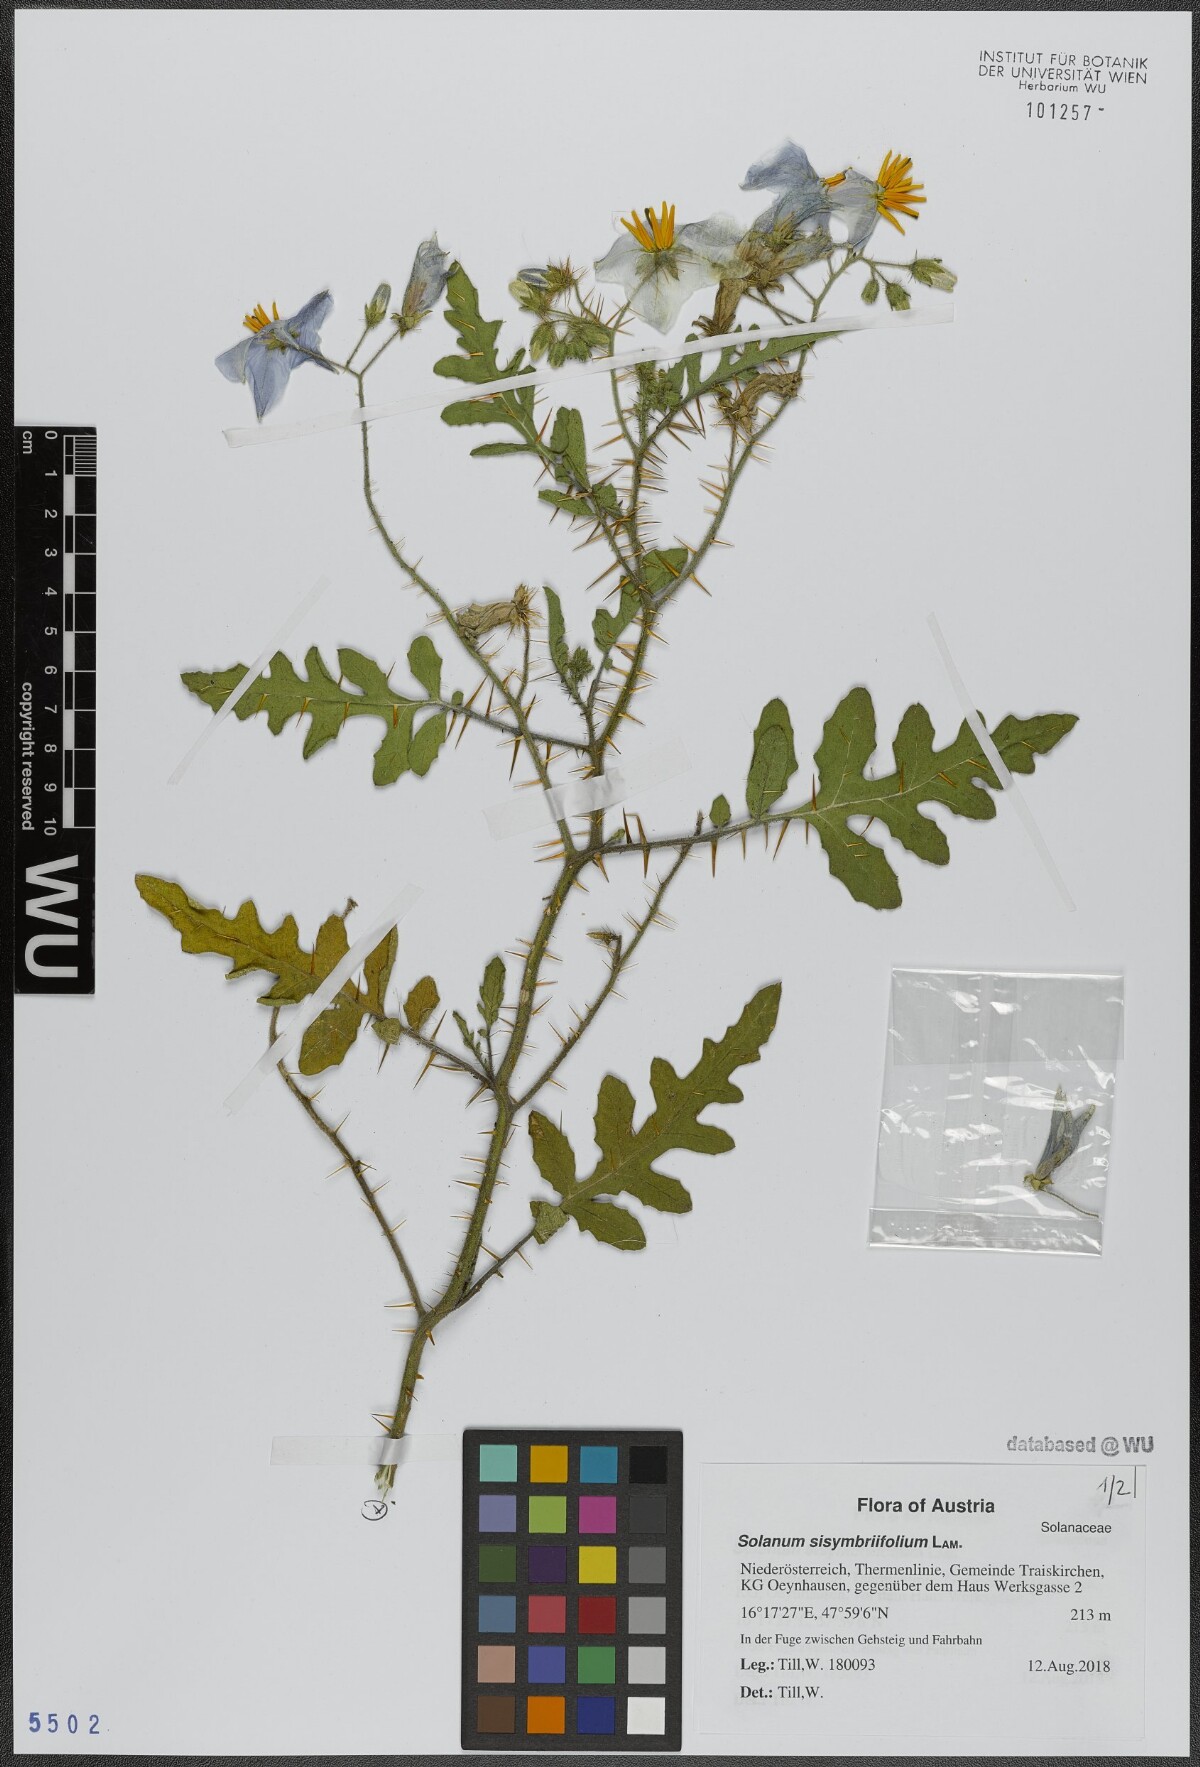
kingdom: Plantae
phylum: Tracheophyta
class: Magnoliopsida
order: Solanales
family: Solanaceae
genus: Solanum
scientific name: Solanum sisymbriifolium
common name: Red buffalo-bur
